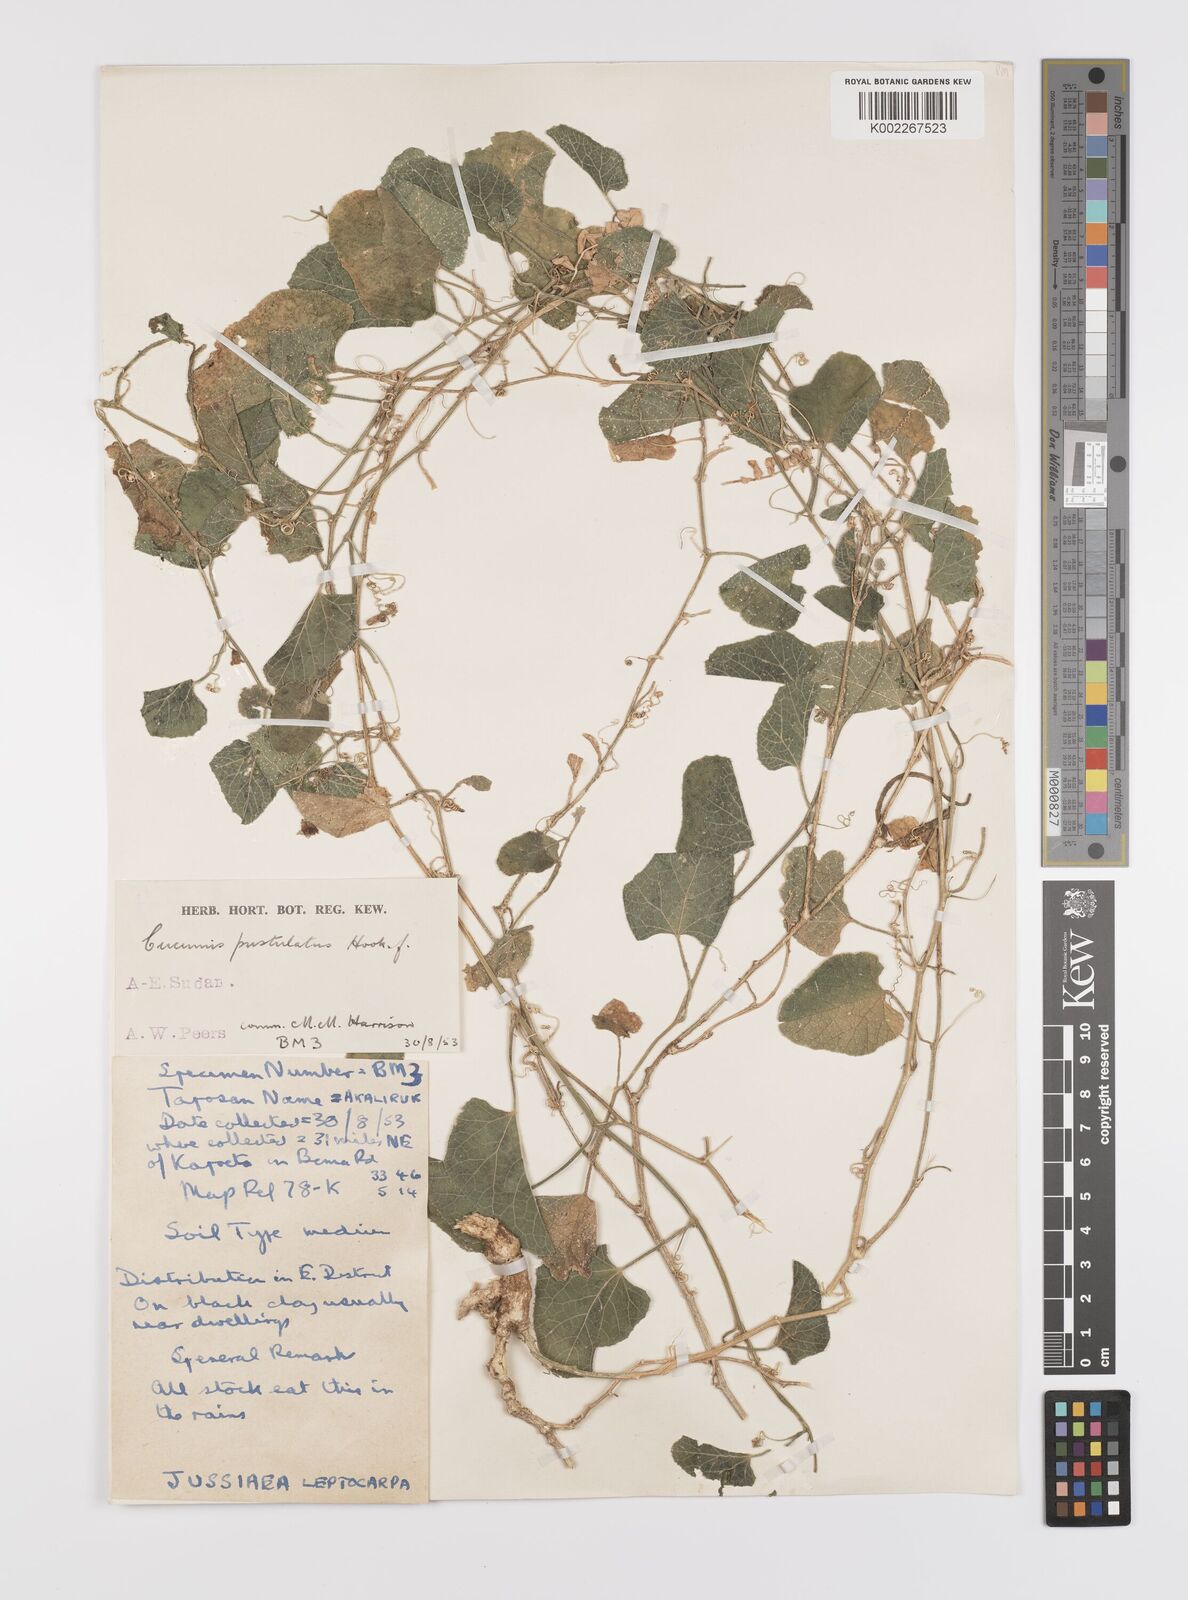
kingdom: Plantae
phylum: Tracheophyta
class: Magnoliopsida
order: Cucurbitales
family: Cucurbitaceae
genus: Cucumis
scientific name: Cucumis pustulatus
